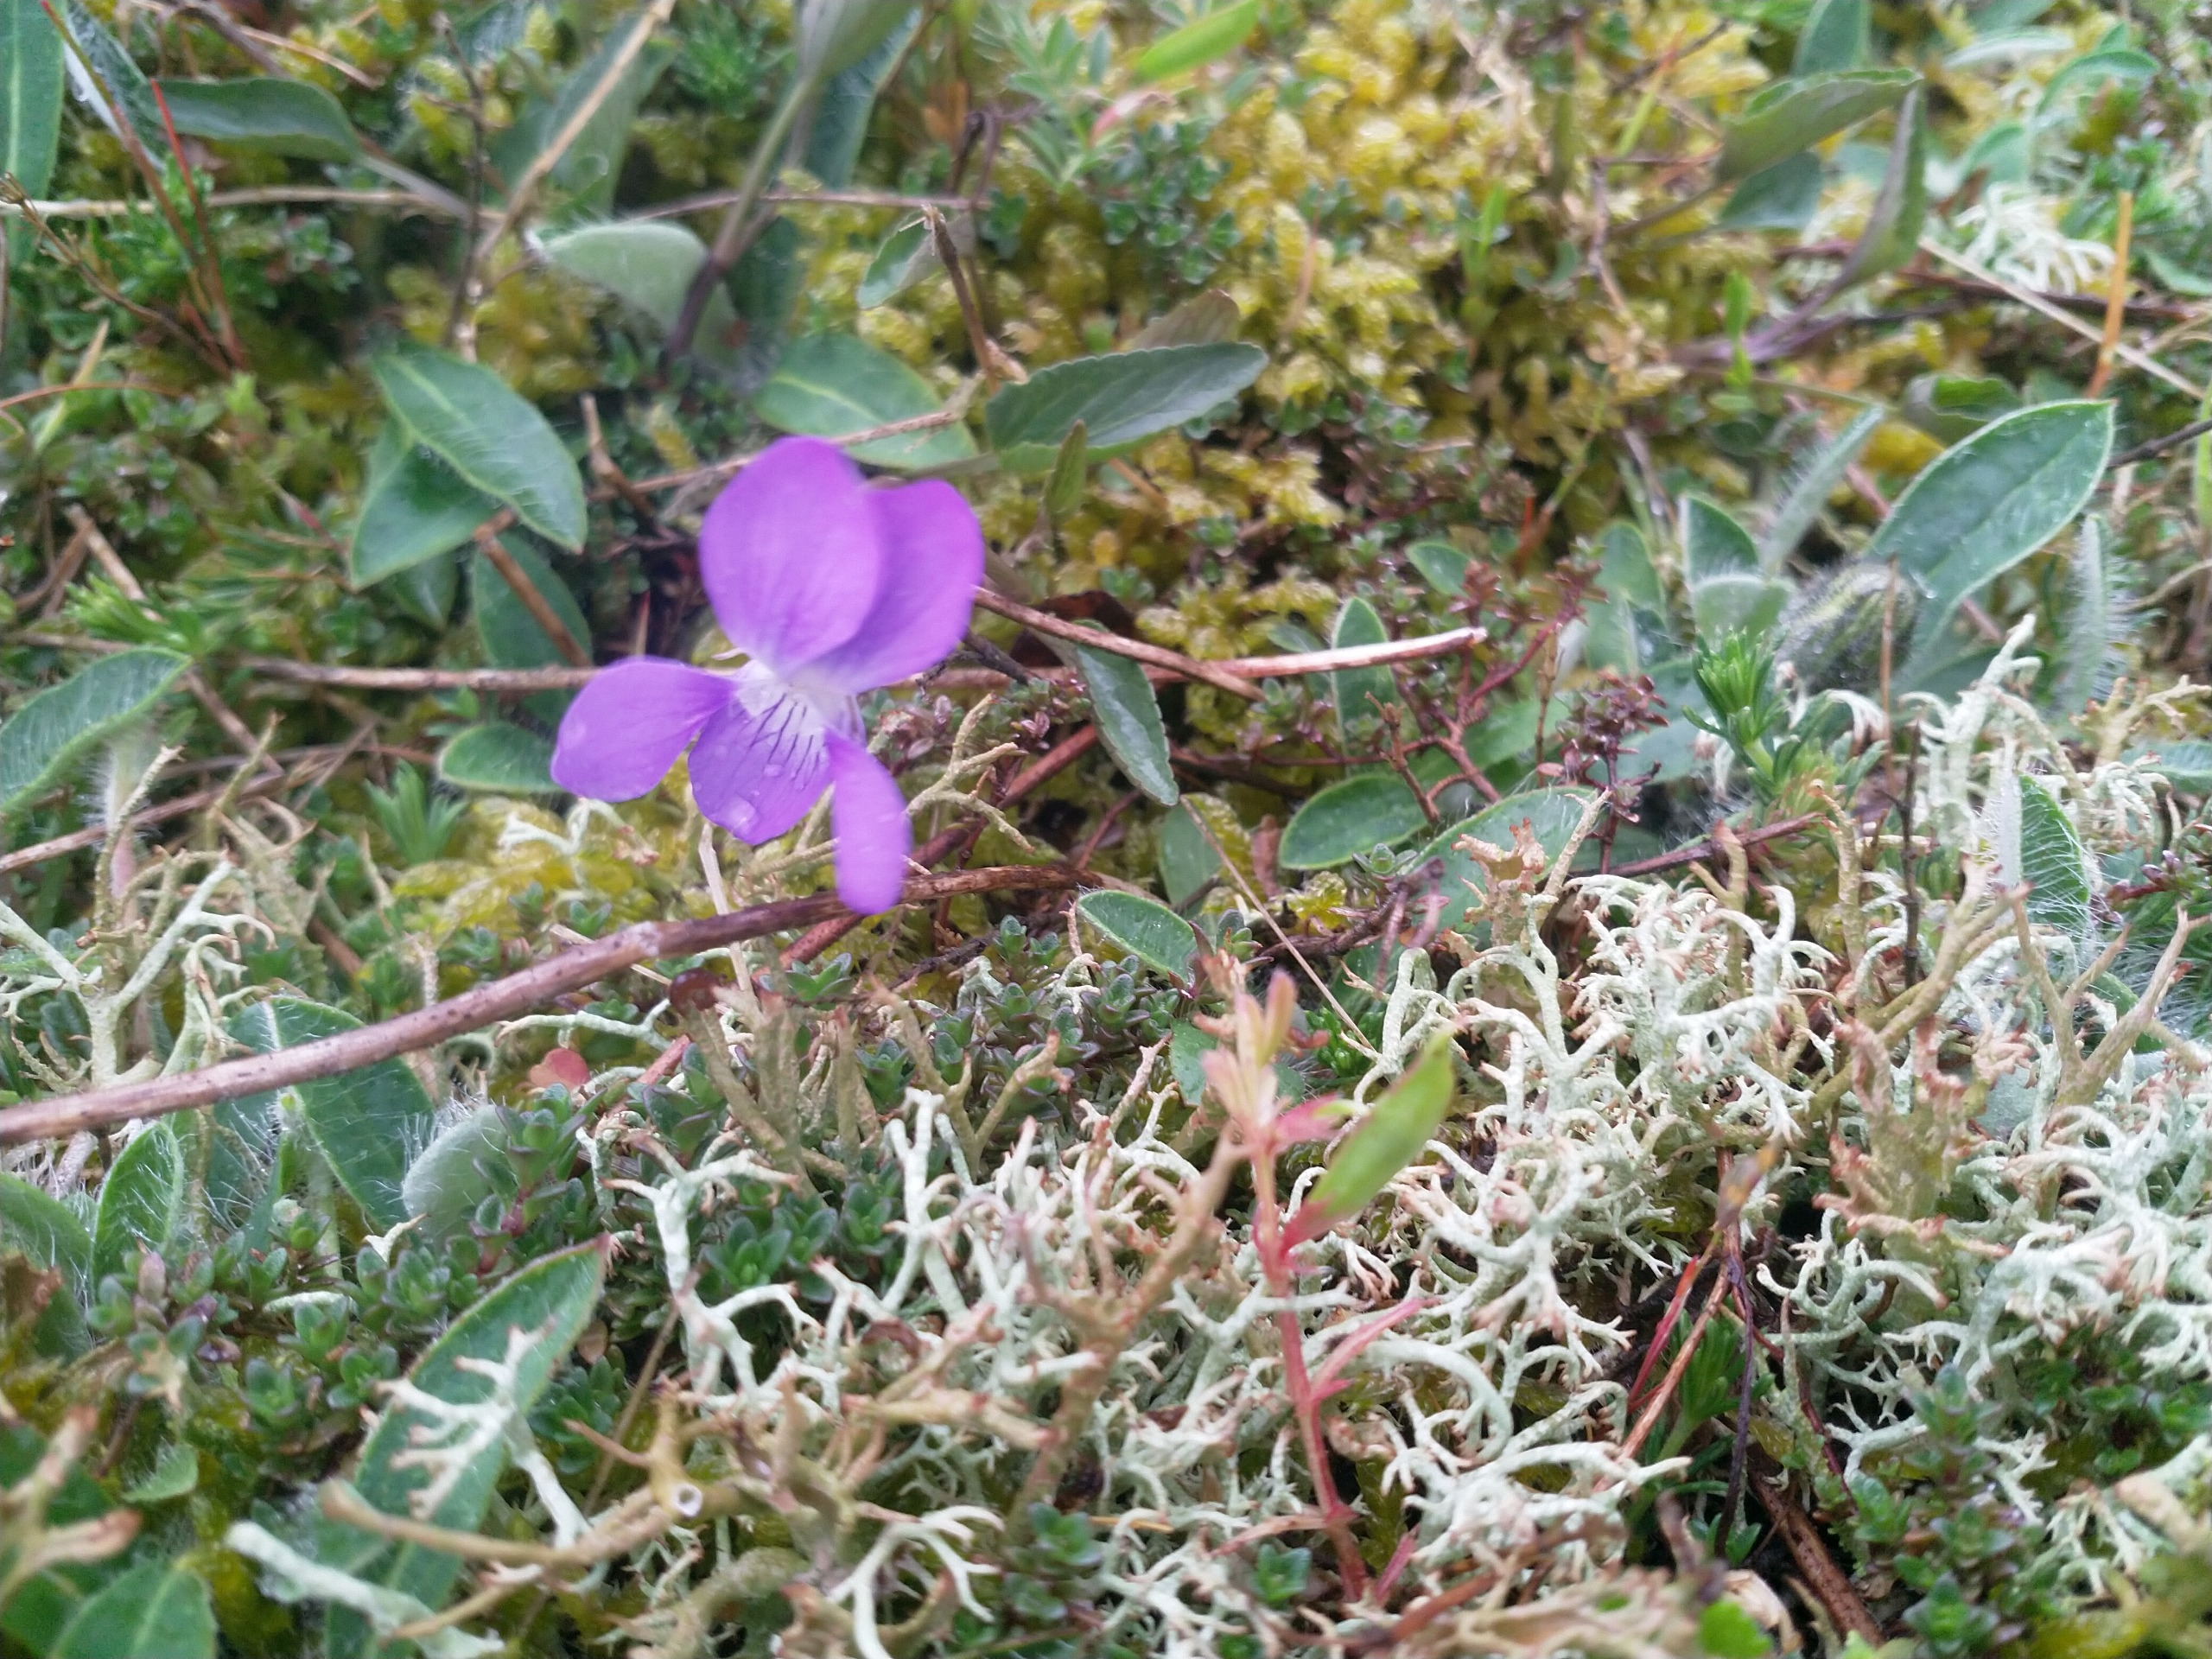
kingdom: Plantae
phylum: Tracheophyta
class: Magnoliopsida
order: Malpighiales
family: Violaceae
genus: Viola
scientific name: Viola canina
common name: Hunde-viol
